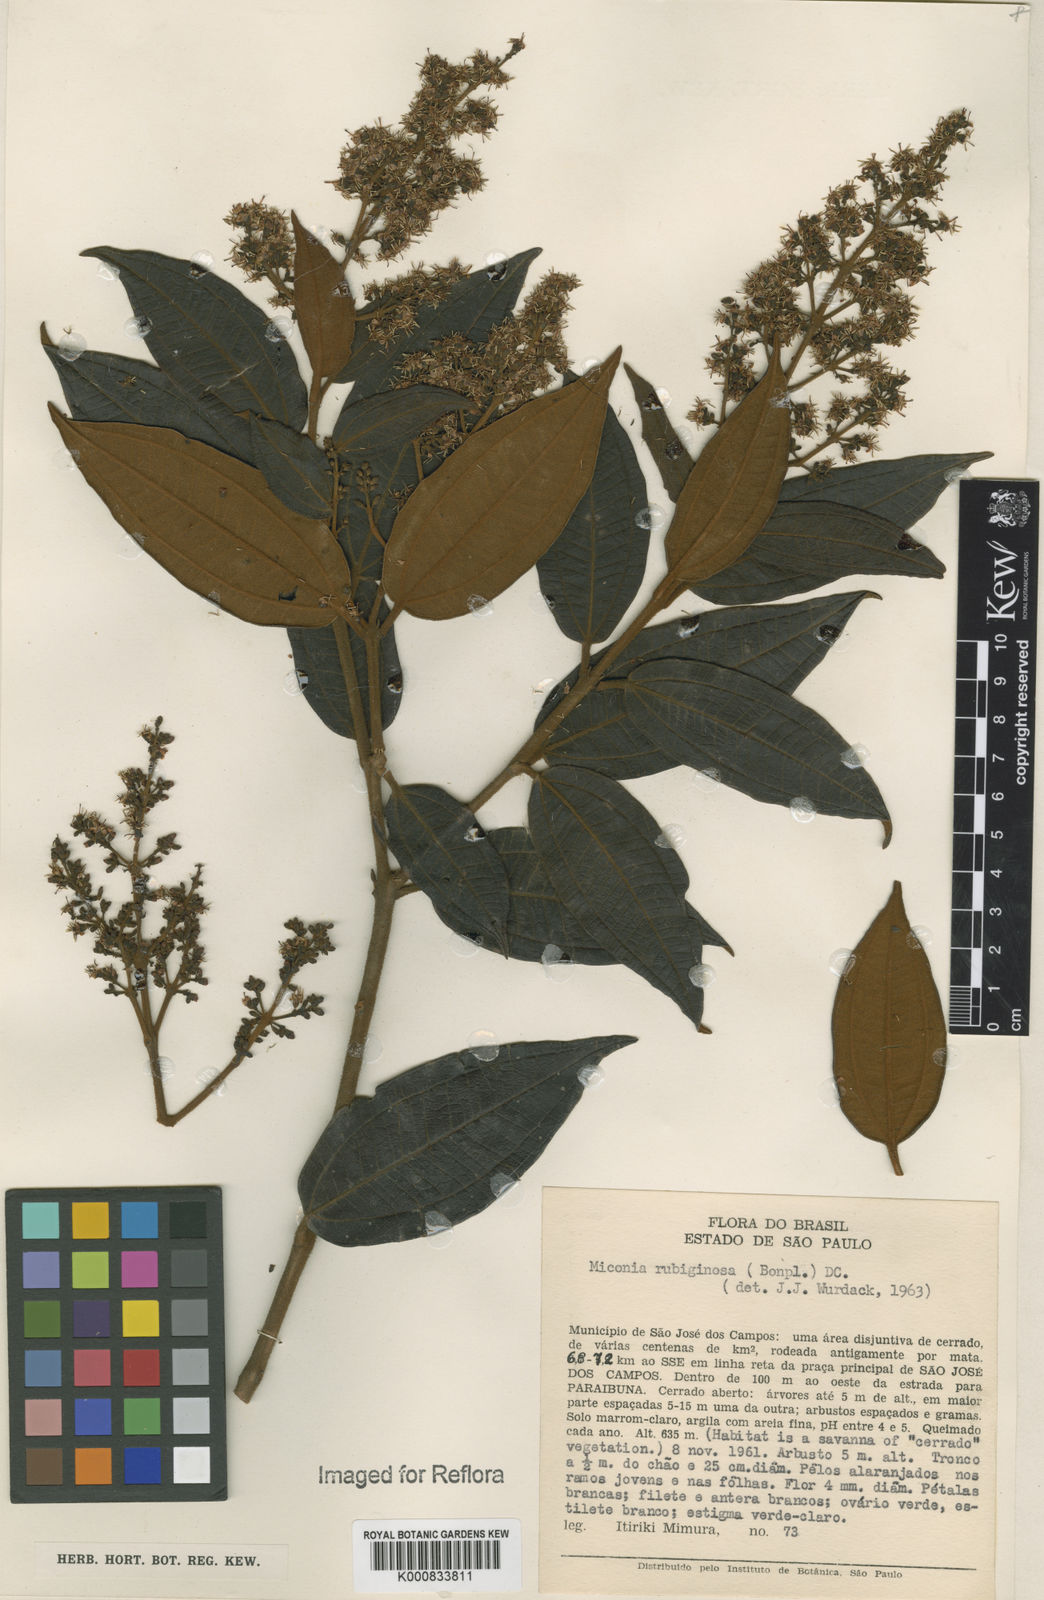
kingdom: Plantae
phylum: Tracheophyta
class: Magnoliopsida
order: Myrtales
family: Melastomataceae
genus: Miconia
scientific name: Miconia rubiginosa
